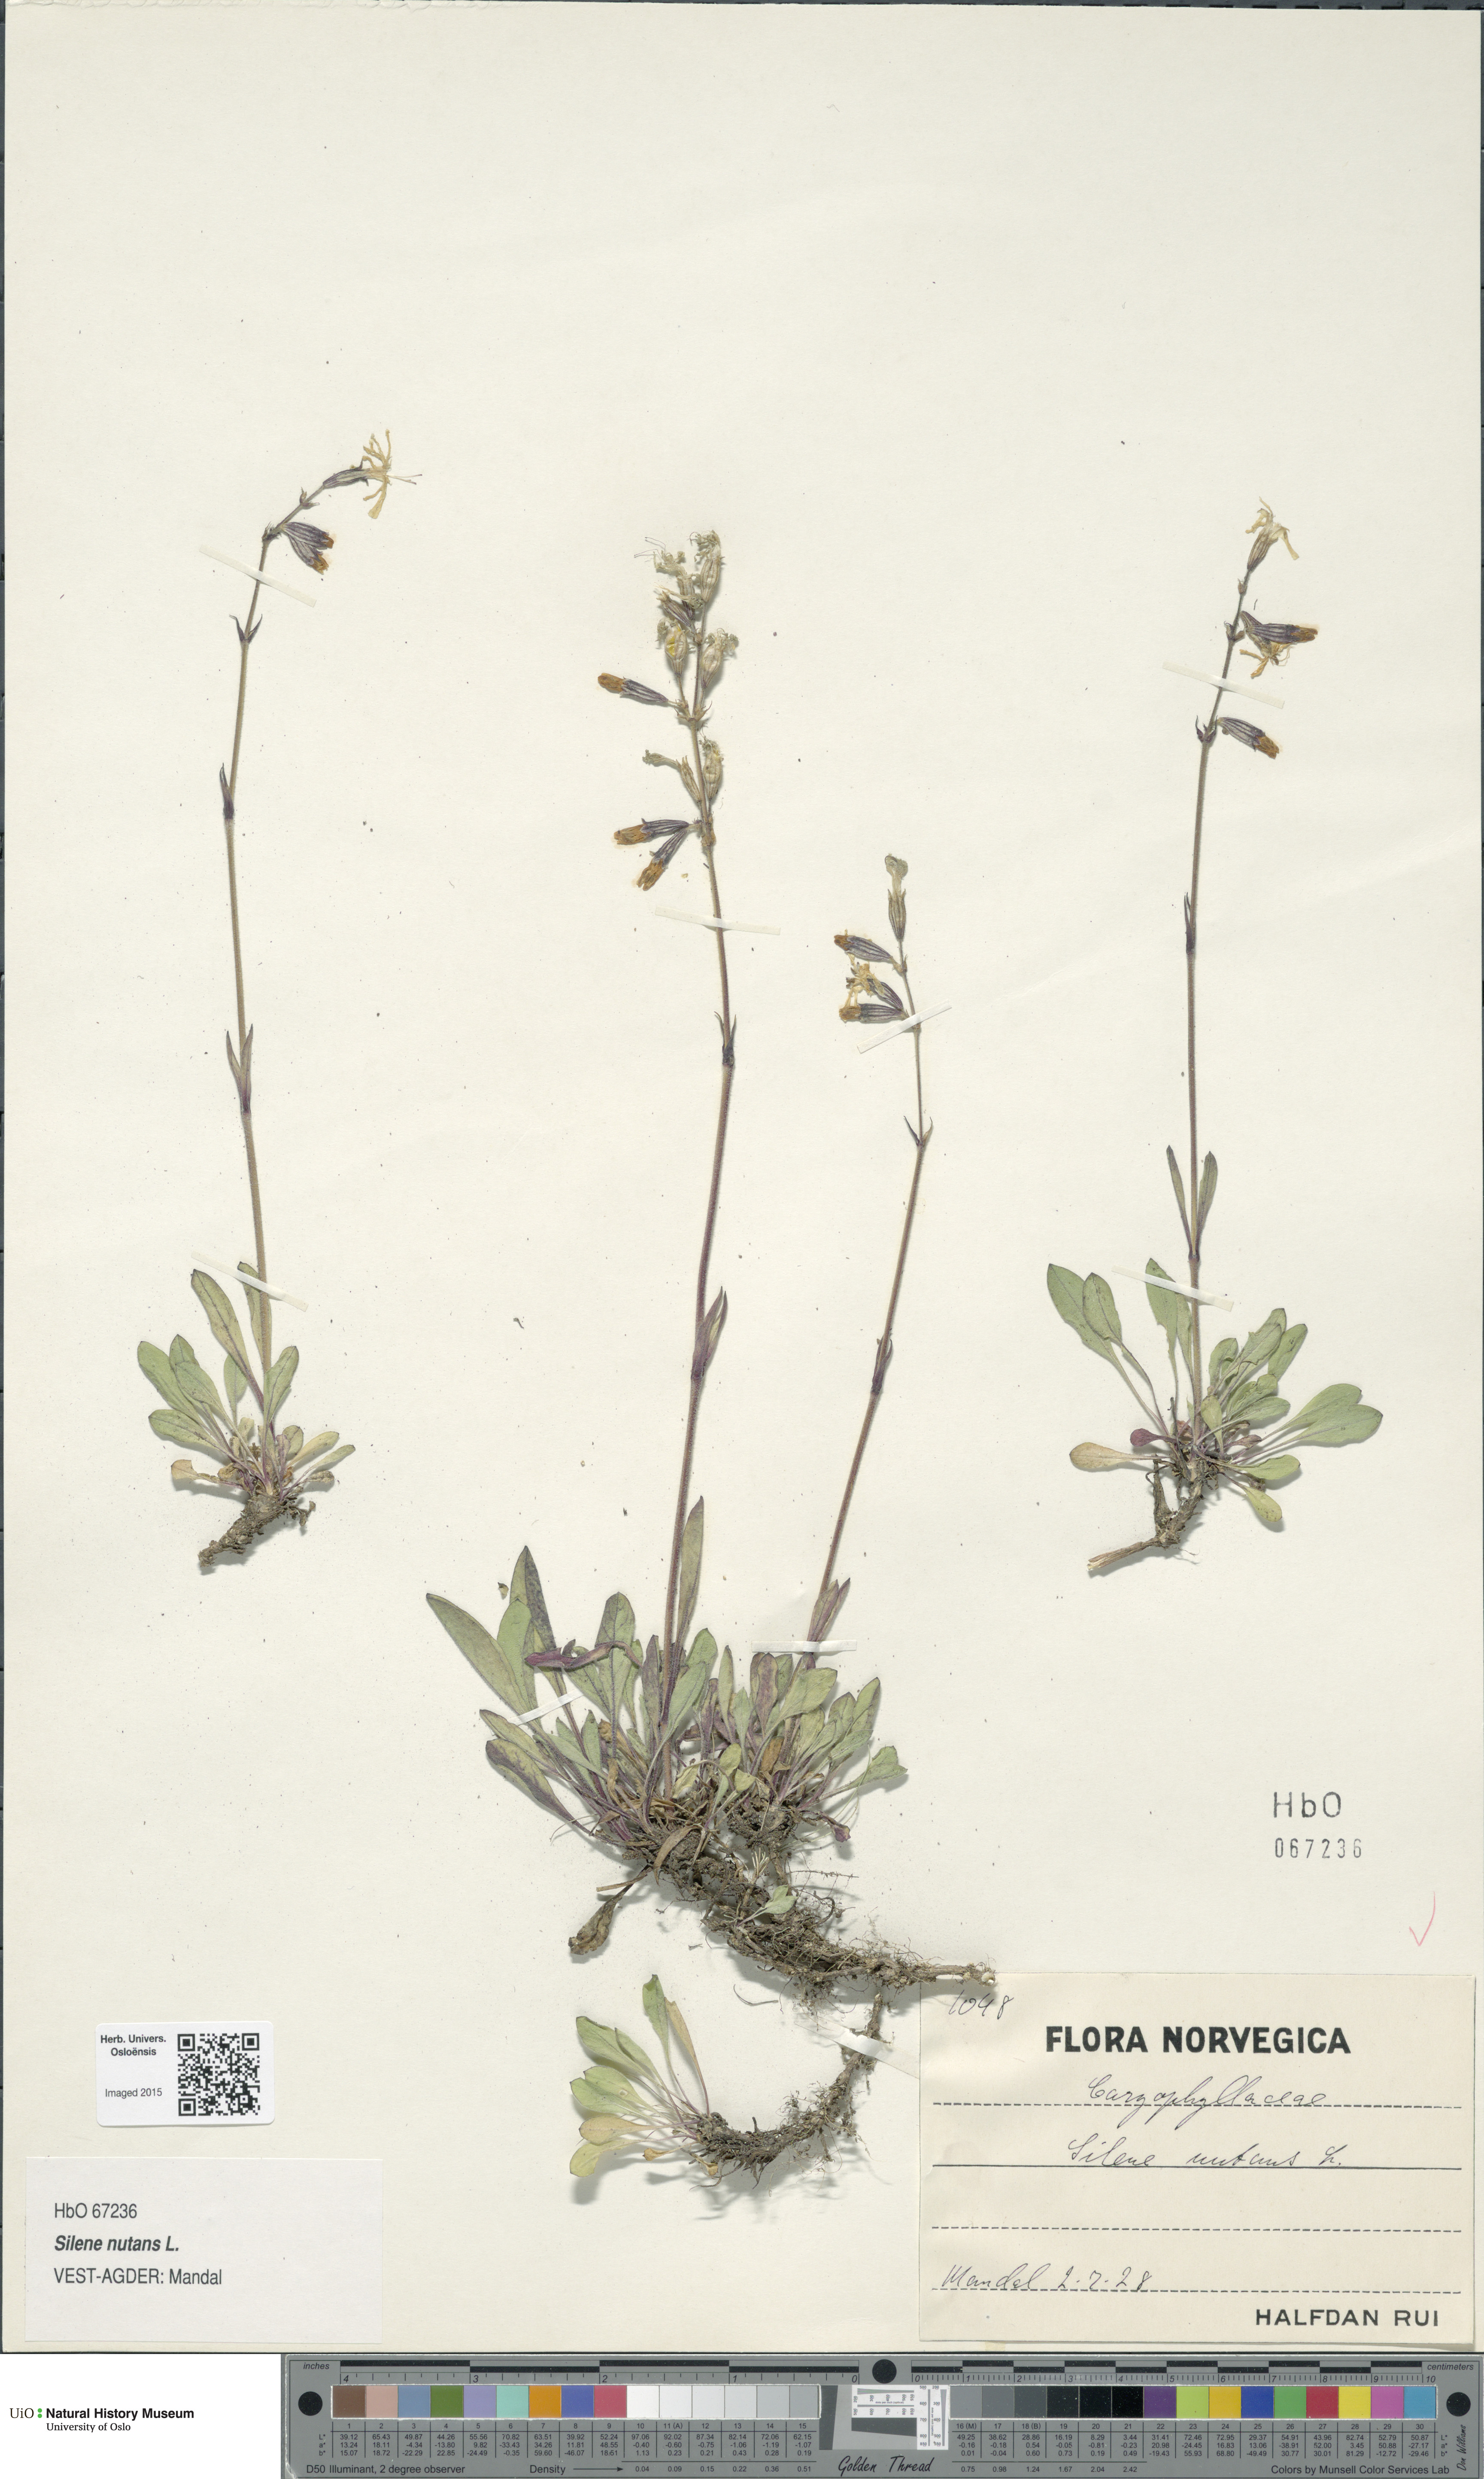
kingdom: Plantae
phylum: Tracheophyta
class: Magnoliopsida
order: Caryophyllales
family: Caryophyllaceae
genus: Silene
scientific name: Silene nutans
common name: Nottingham catchfly
